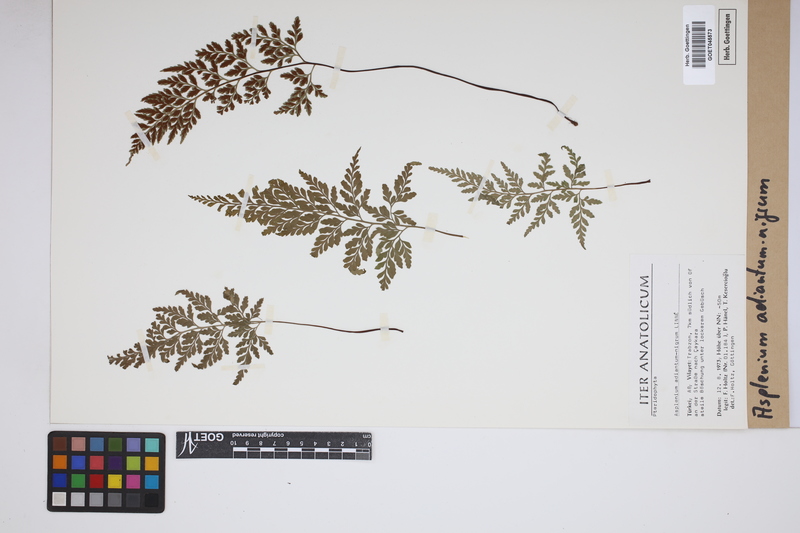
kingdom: Plantae
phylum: Tracheophyta
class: Polypodiopsida
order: Polypodiales
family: Aspleniaceae
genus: Asplenium
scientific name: Asplenium adiantum-nigrum
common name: Black spleenwort
